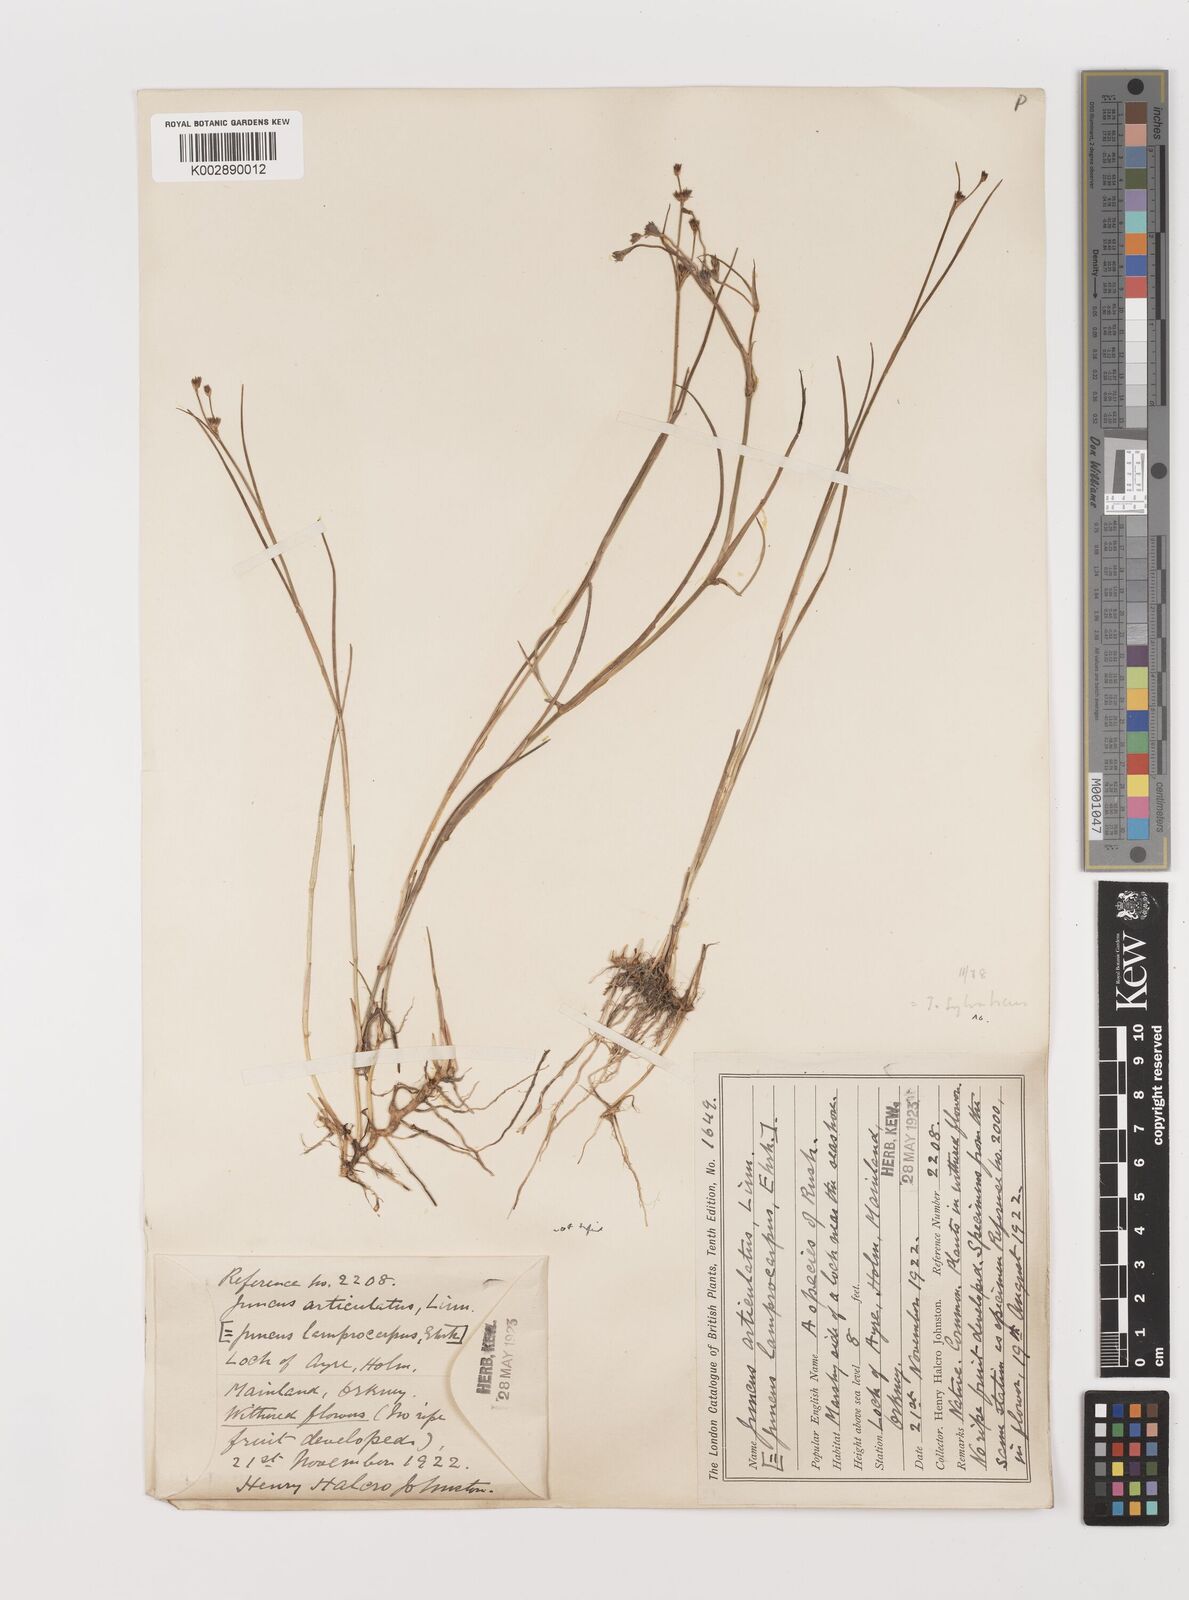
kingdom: Plantae
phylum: Tracheophyta
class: Liliopsida
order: Poales
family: Juncaceae
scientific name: Juncaceae
